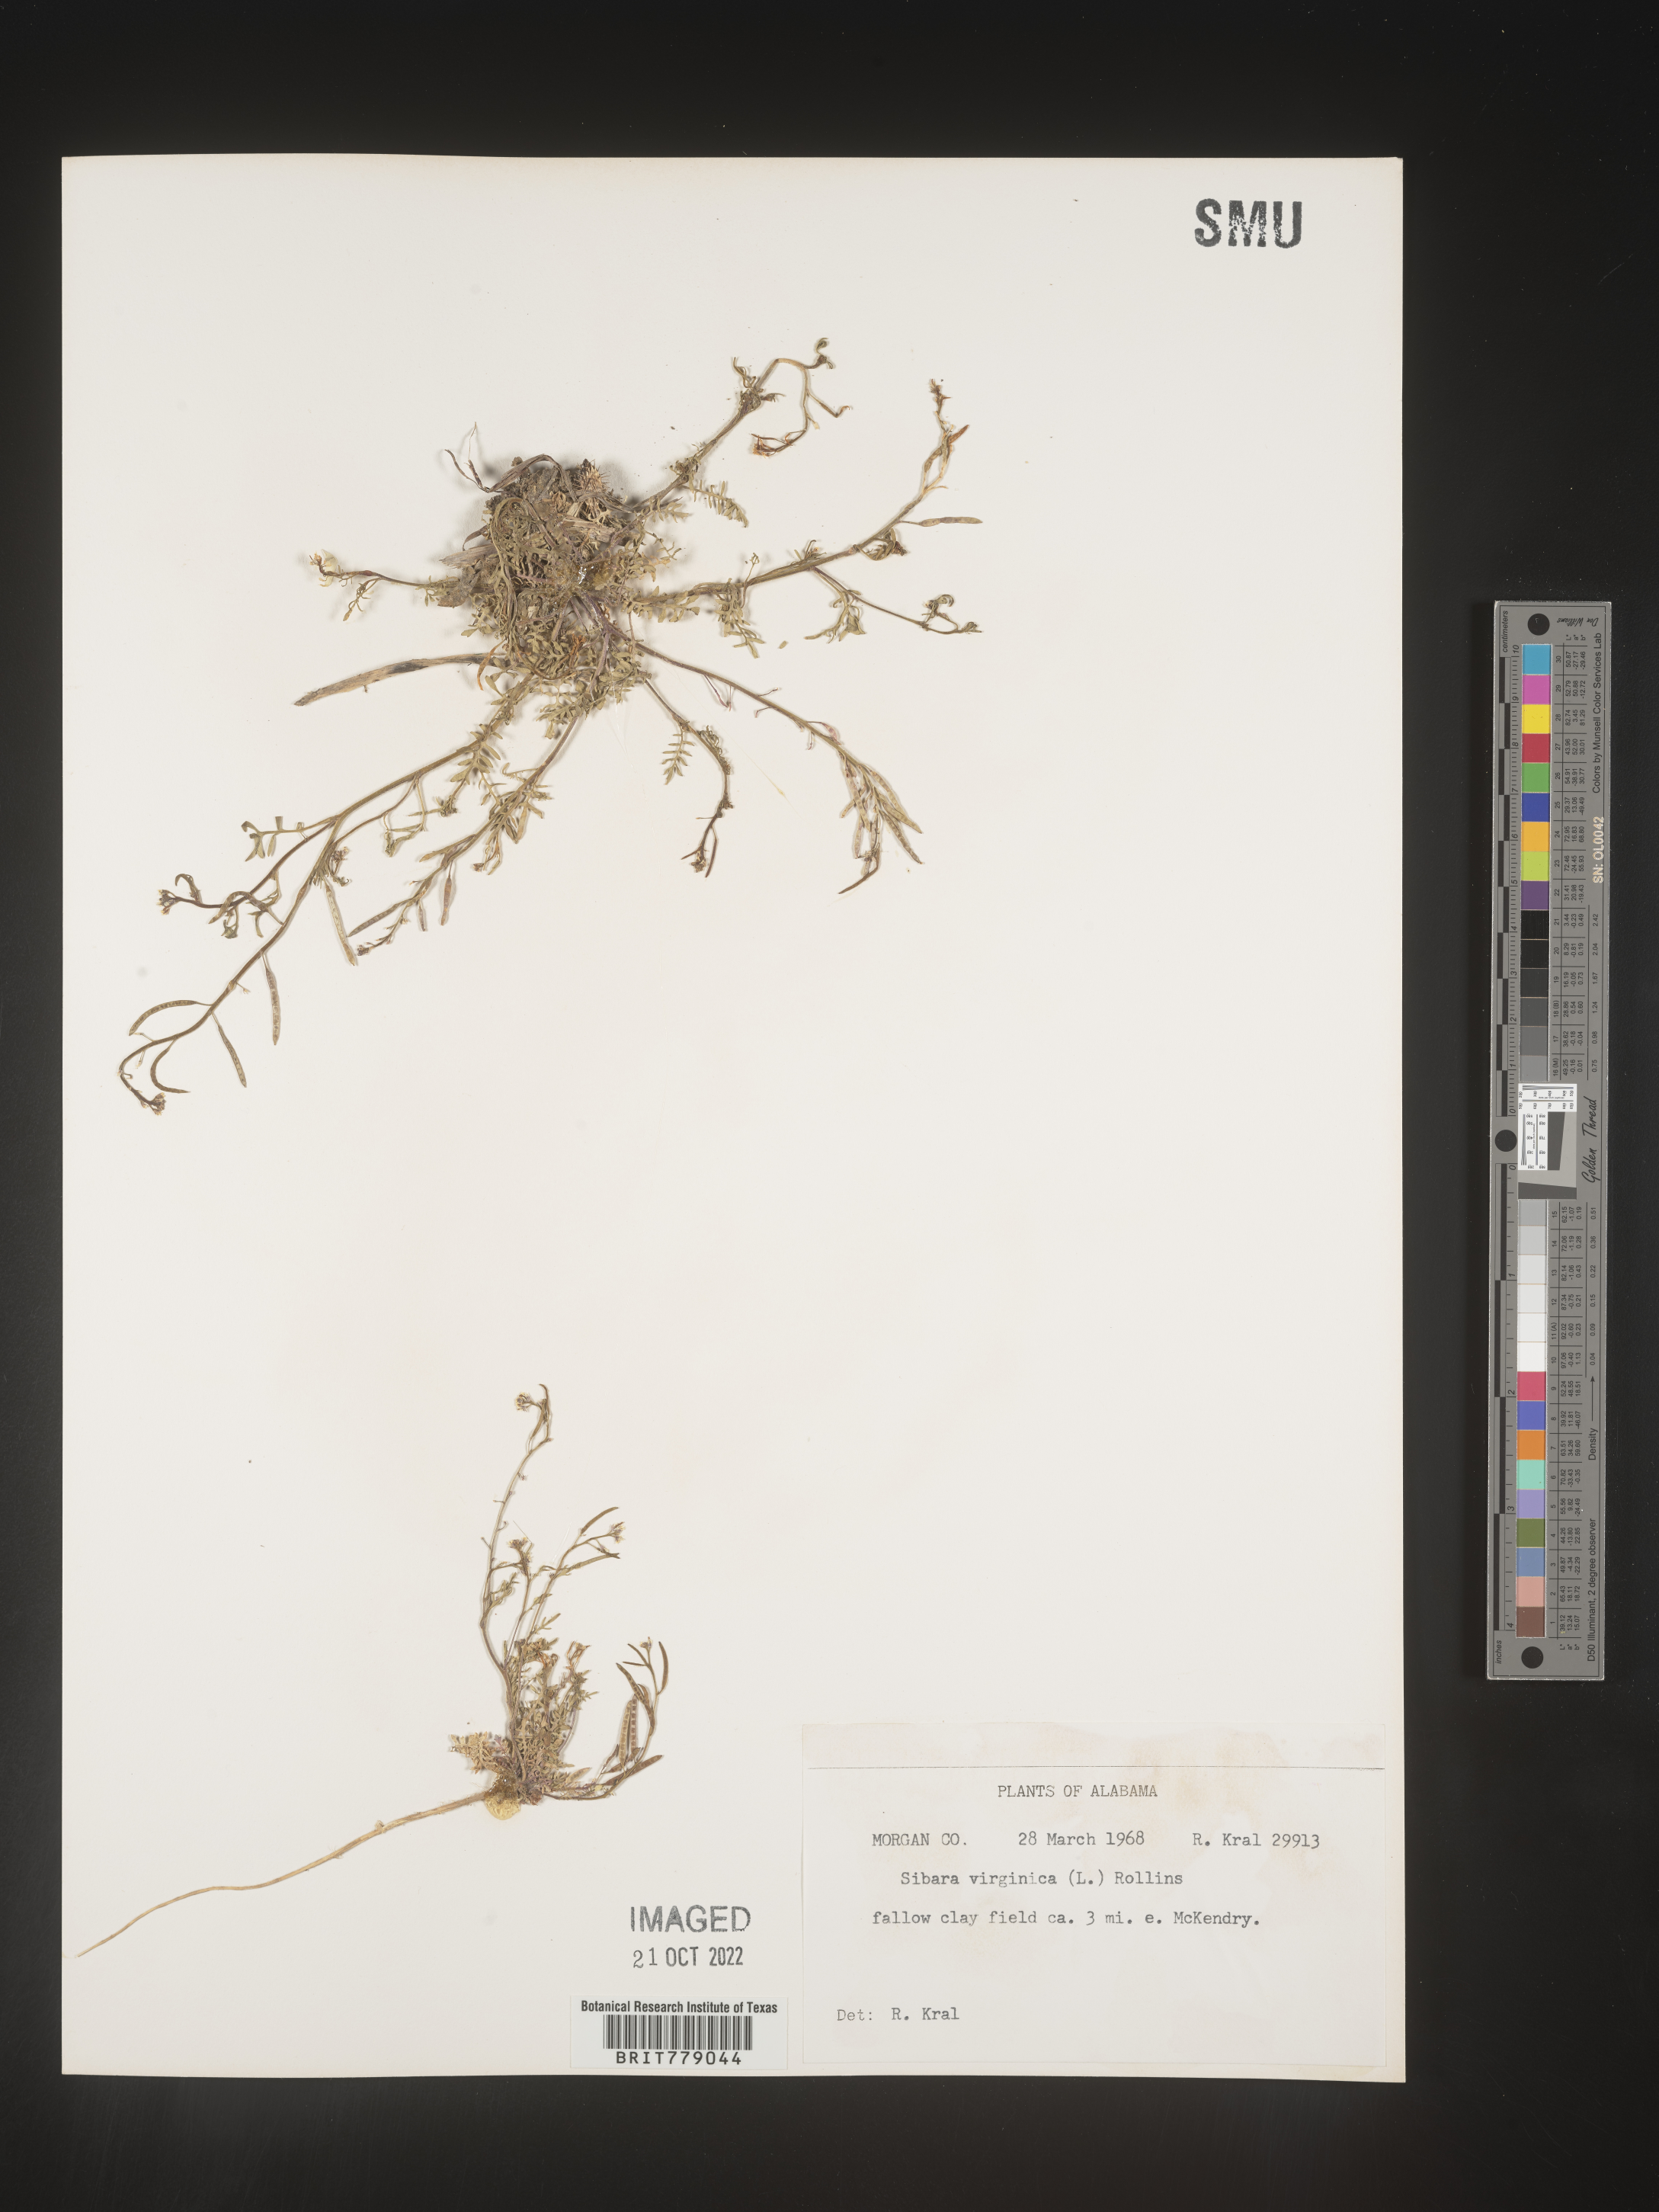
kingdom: Plantae
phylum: Tracheophyta
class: Magnoliopsida
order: Brassicales
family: Brassicaceae
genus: Sibara
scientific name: Sibara
